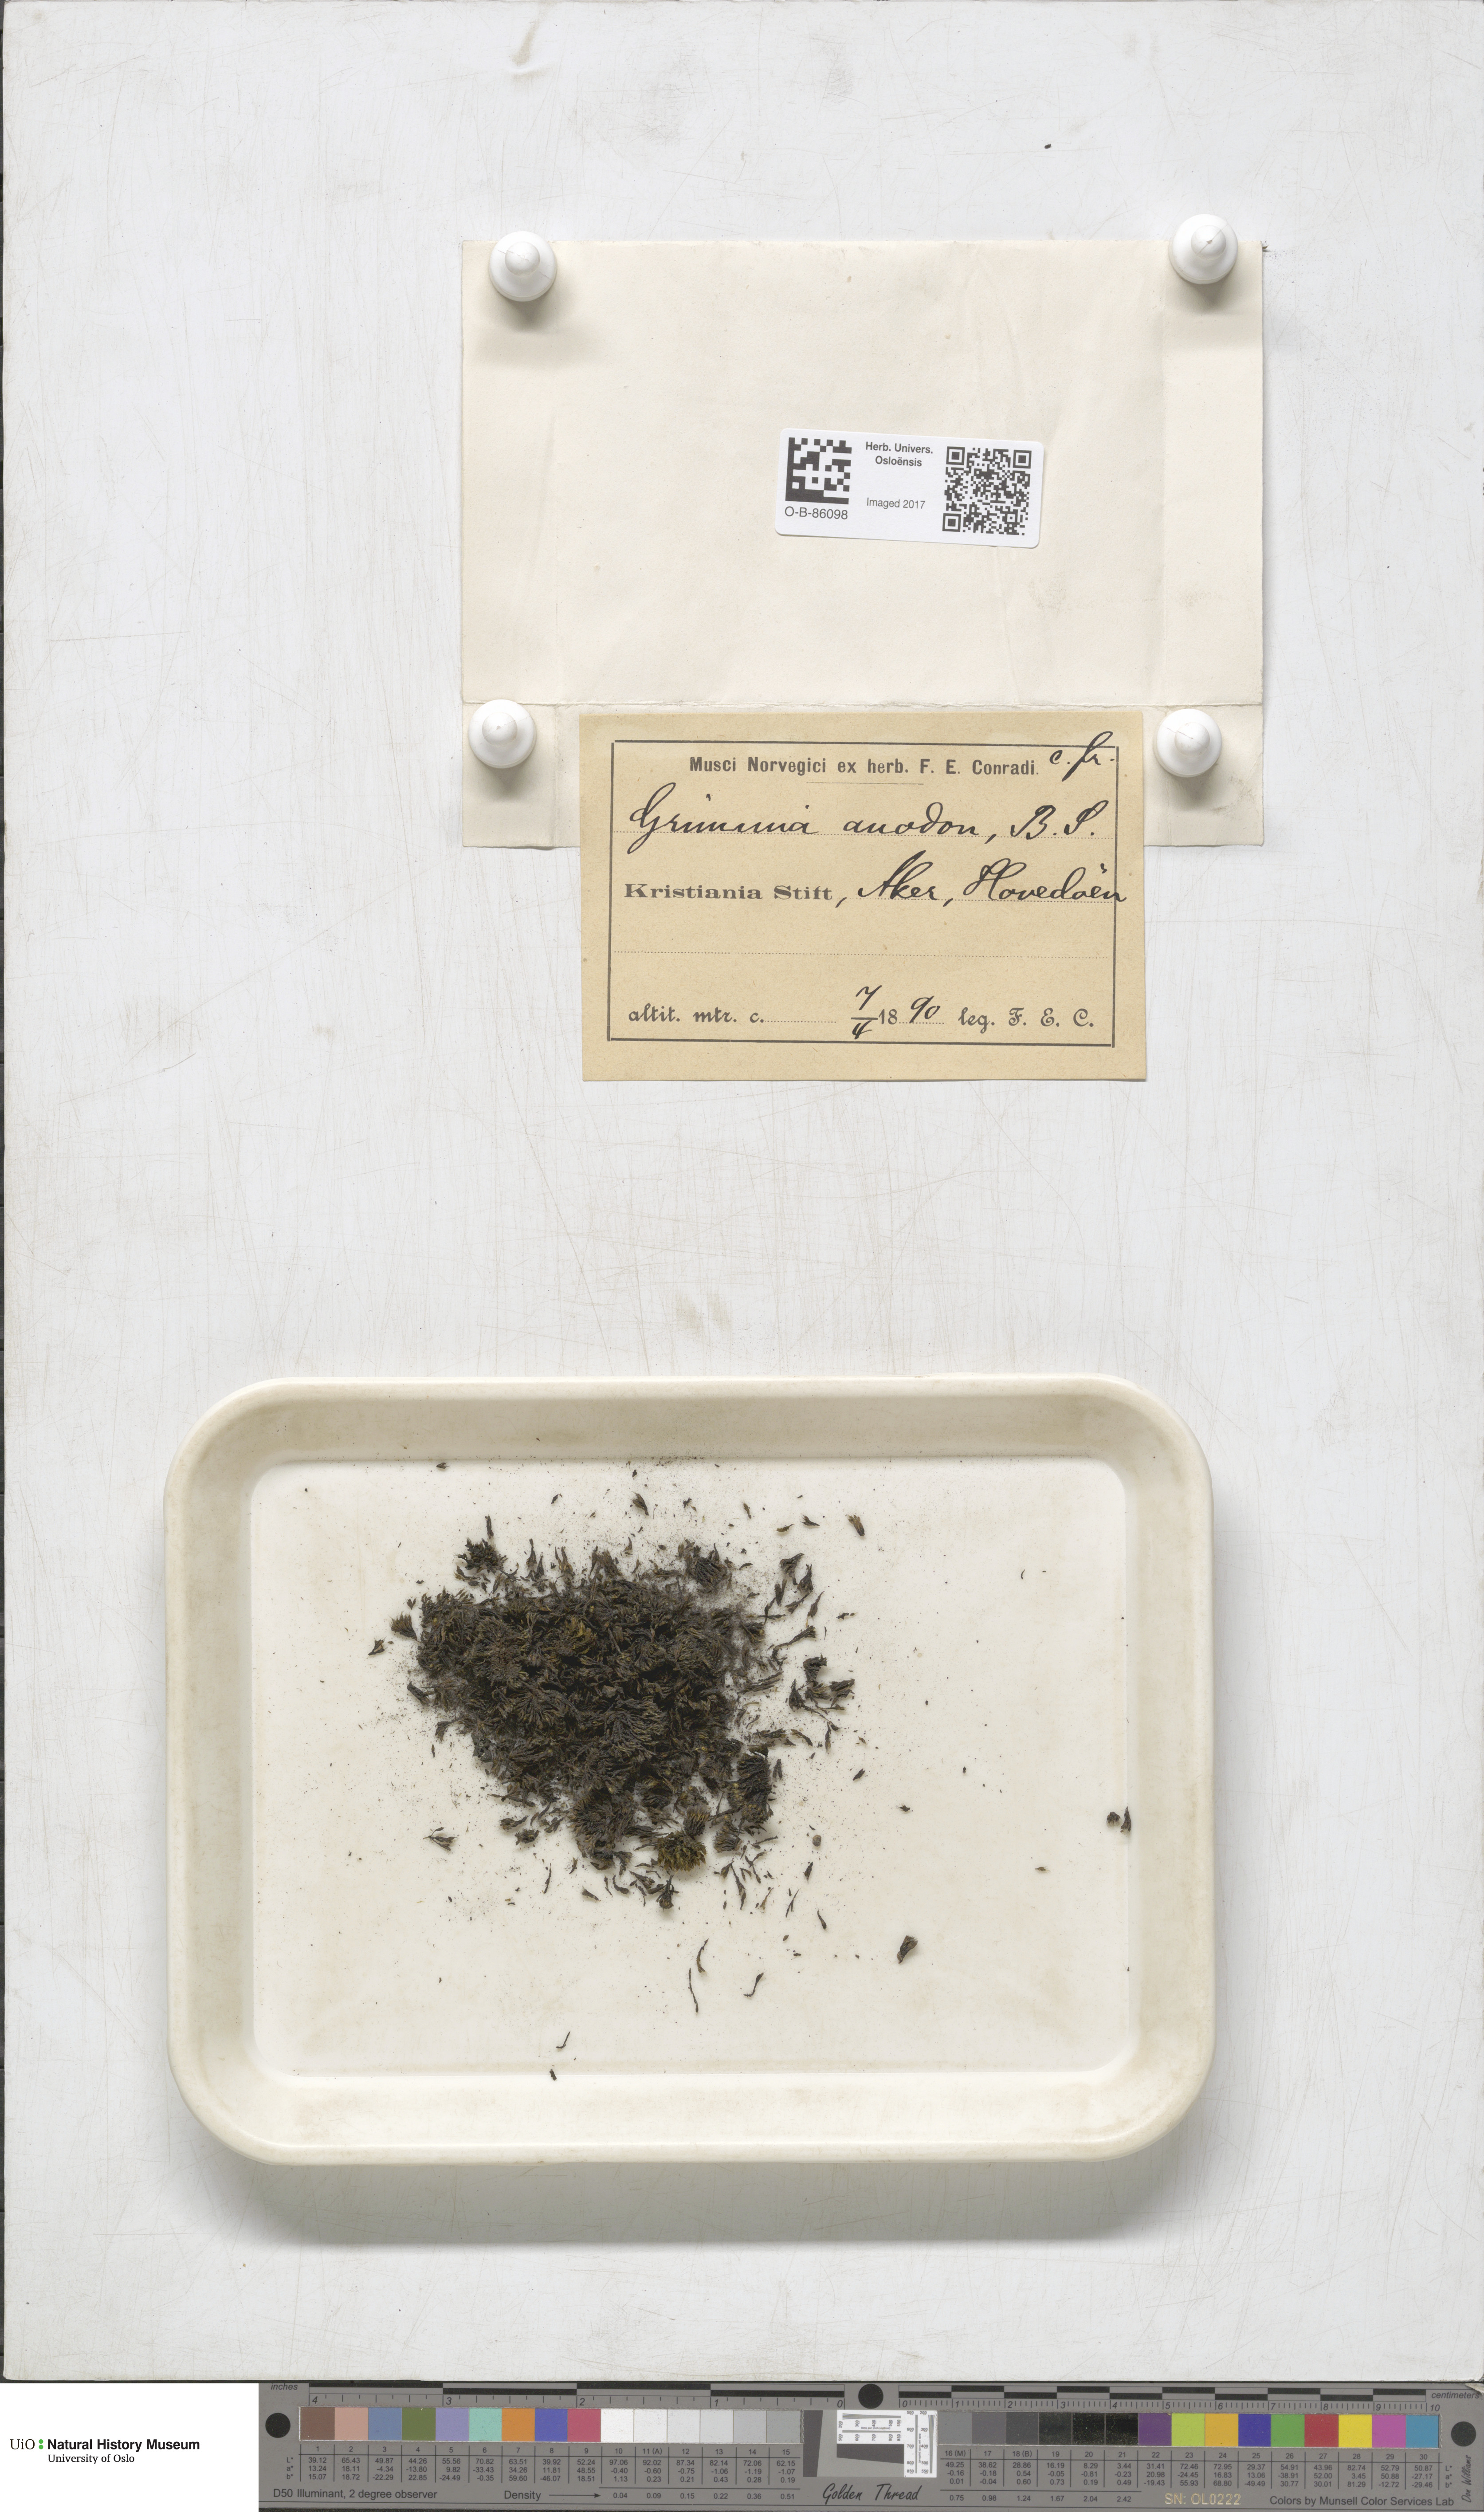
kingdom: Plantae
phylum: Bryophyta
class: Bryopsida
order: Grimmiales
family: Grimmiaceae
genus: Grimmia
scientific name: Grimmia anodon
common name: Toothless grimmia
